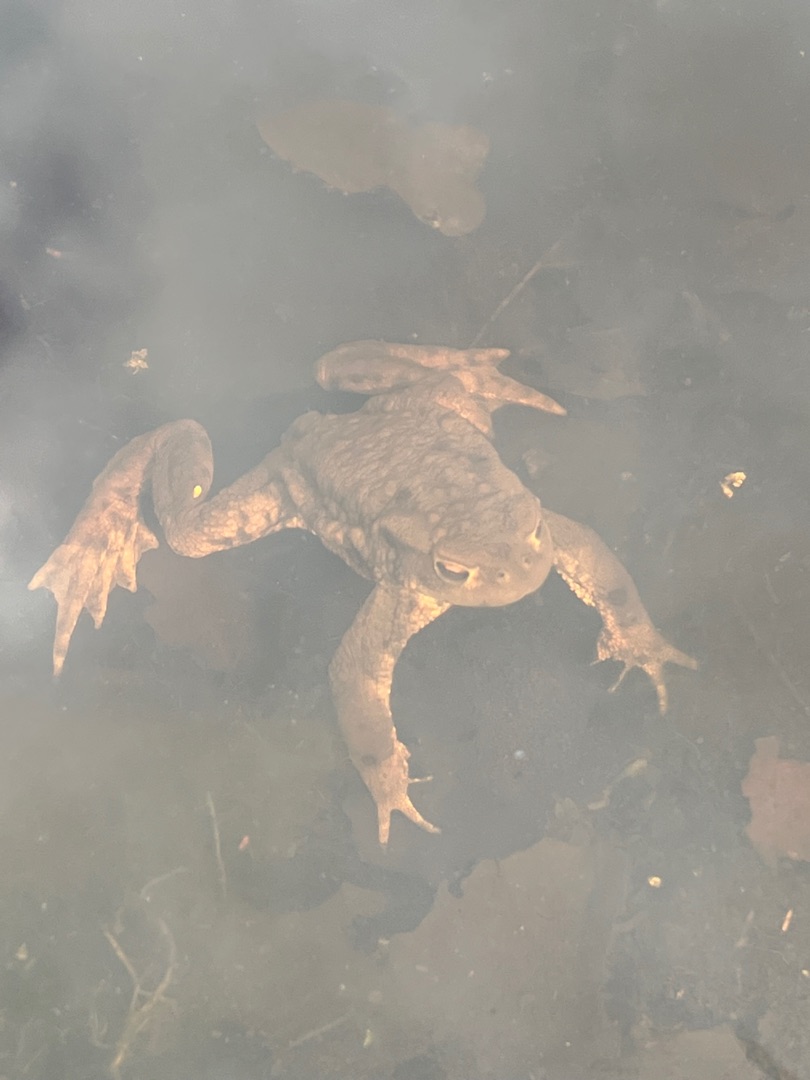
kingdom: Animalia
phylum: Chordata
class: Amphibia
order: Anura
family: Bufonidae
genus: Bufo
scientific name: Bufo bufo
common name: Skrubtudse
